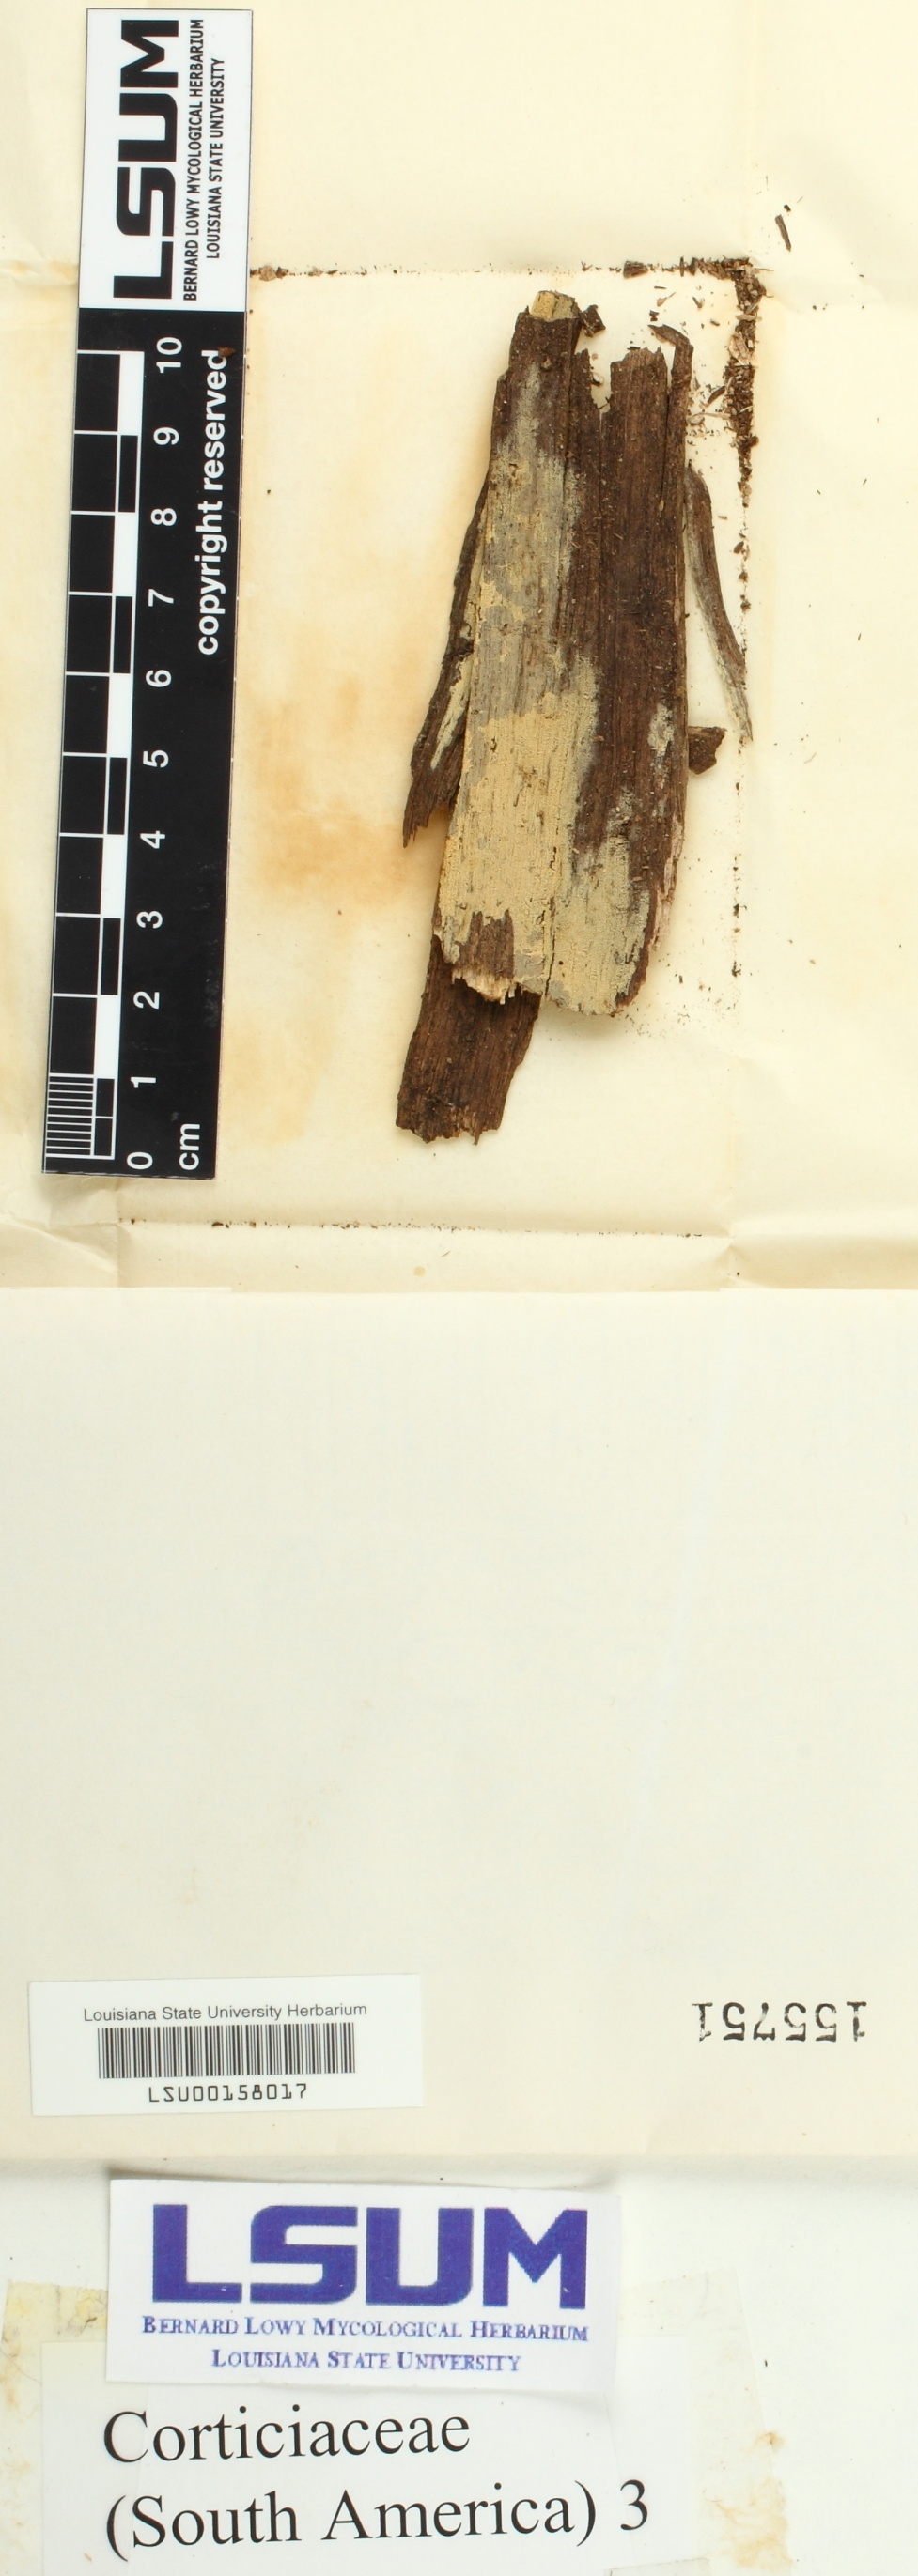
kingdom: Fungi
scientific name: Fungi
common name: Fungi
